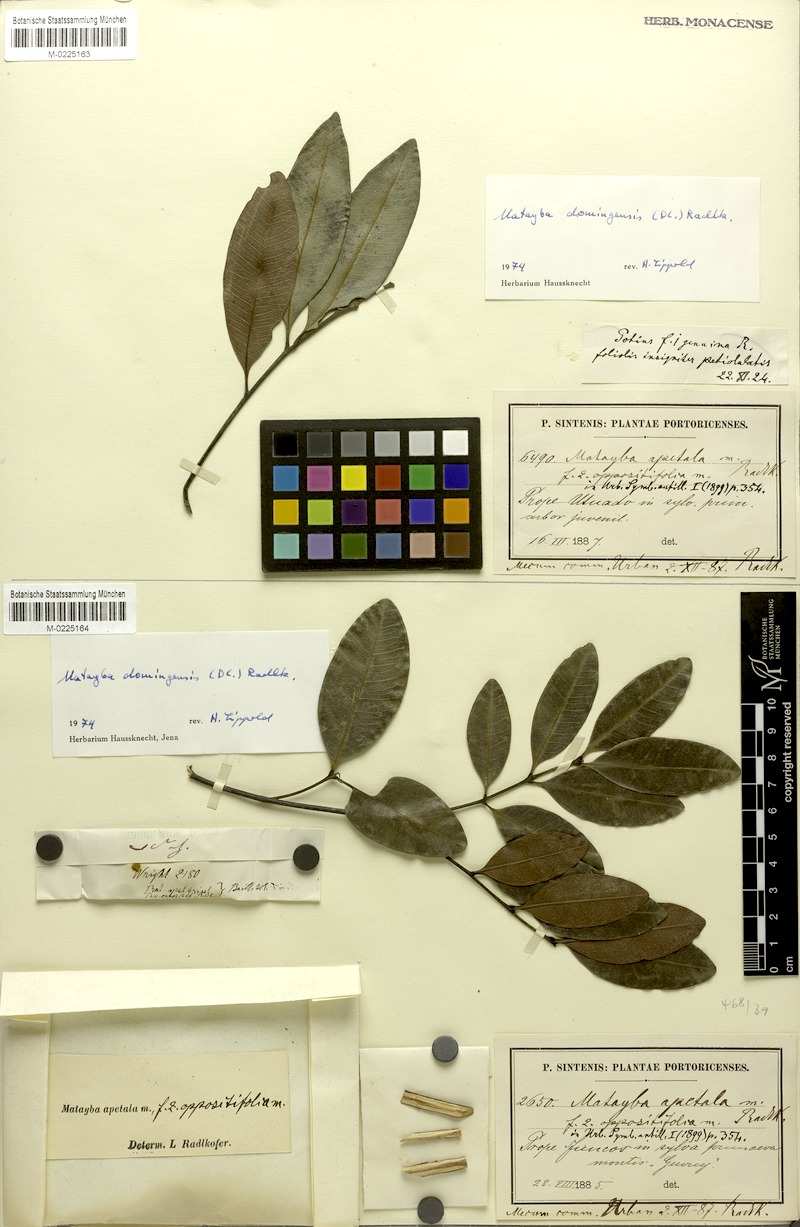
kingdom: Plantae
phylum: Tracheophyta
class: Magnoliopsida
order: Sapindales
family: Sapindaceae
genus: Matayba
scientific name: Matayba domingensis
